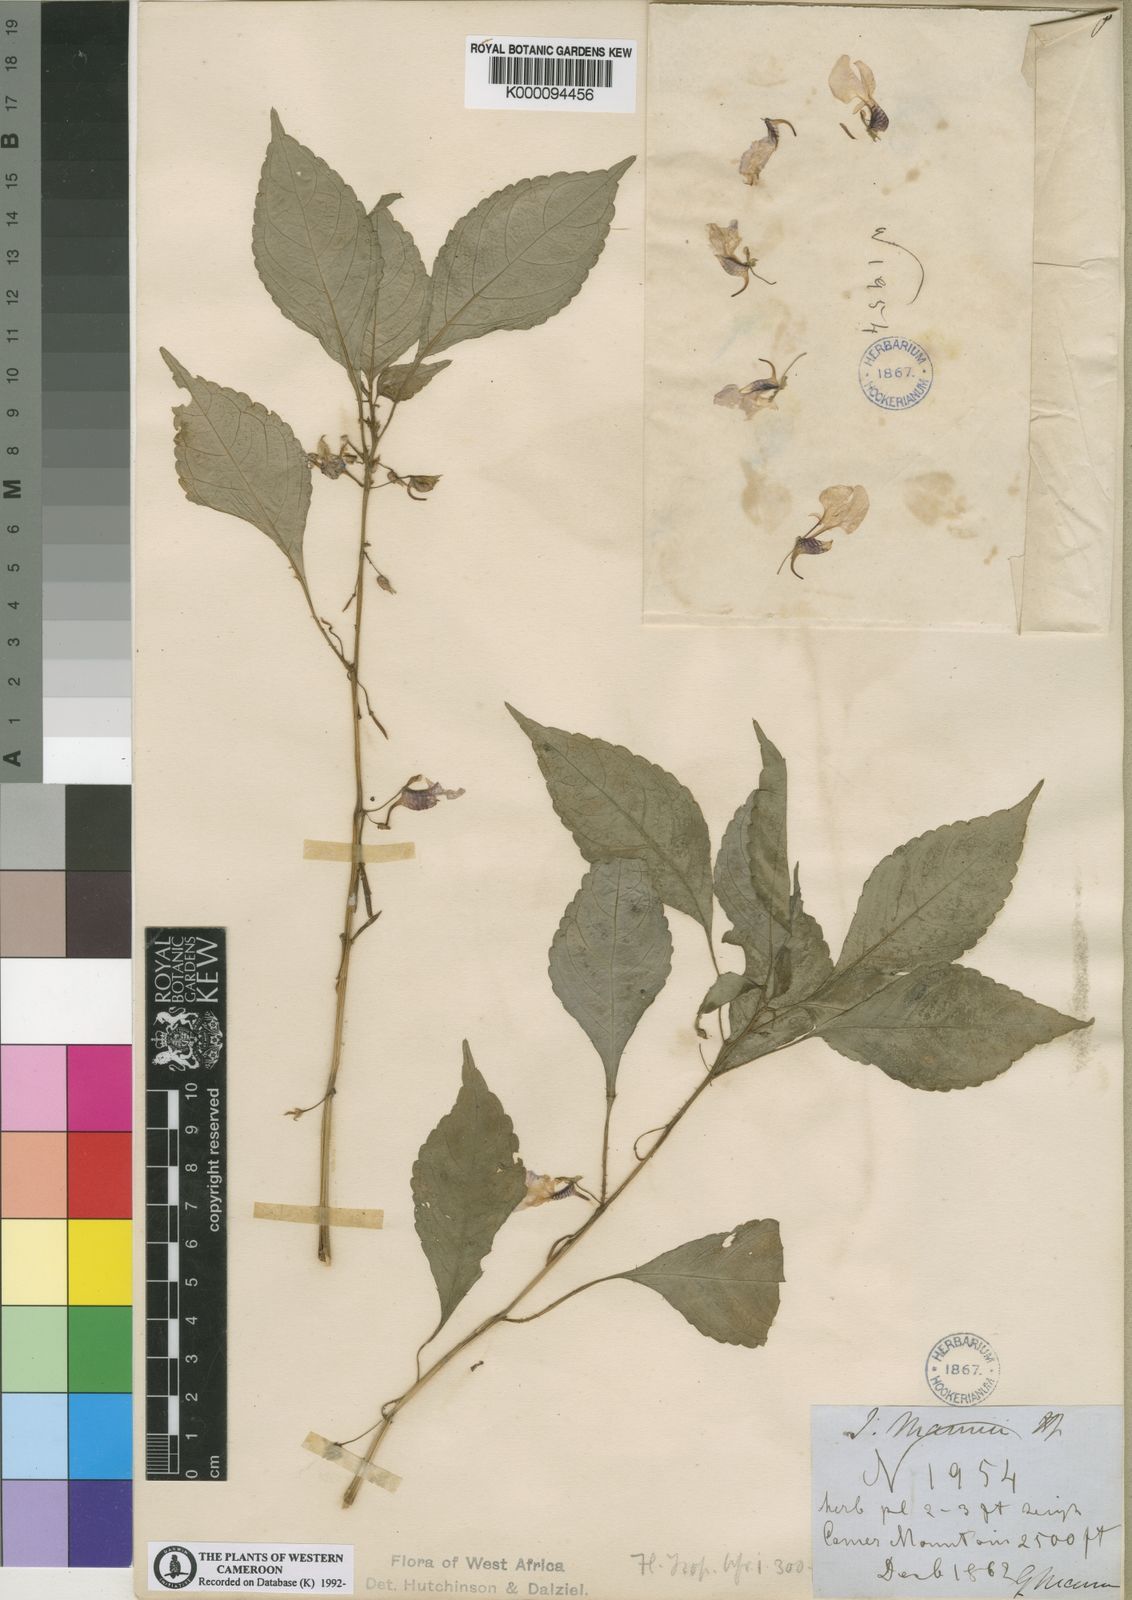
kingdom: Plantae
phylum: Tracheophyta
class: Magnoliopsida
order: Ericales
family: Balsaminaceae
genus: Impatiens
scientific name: Impatiens
